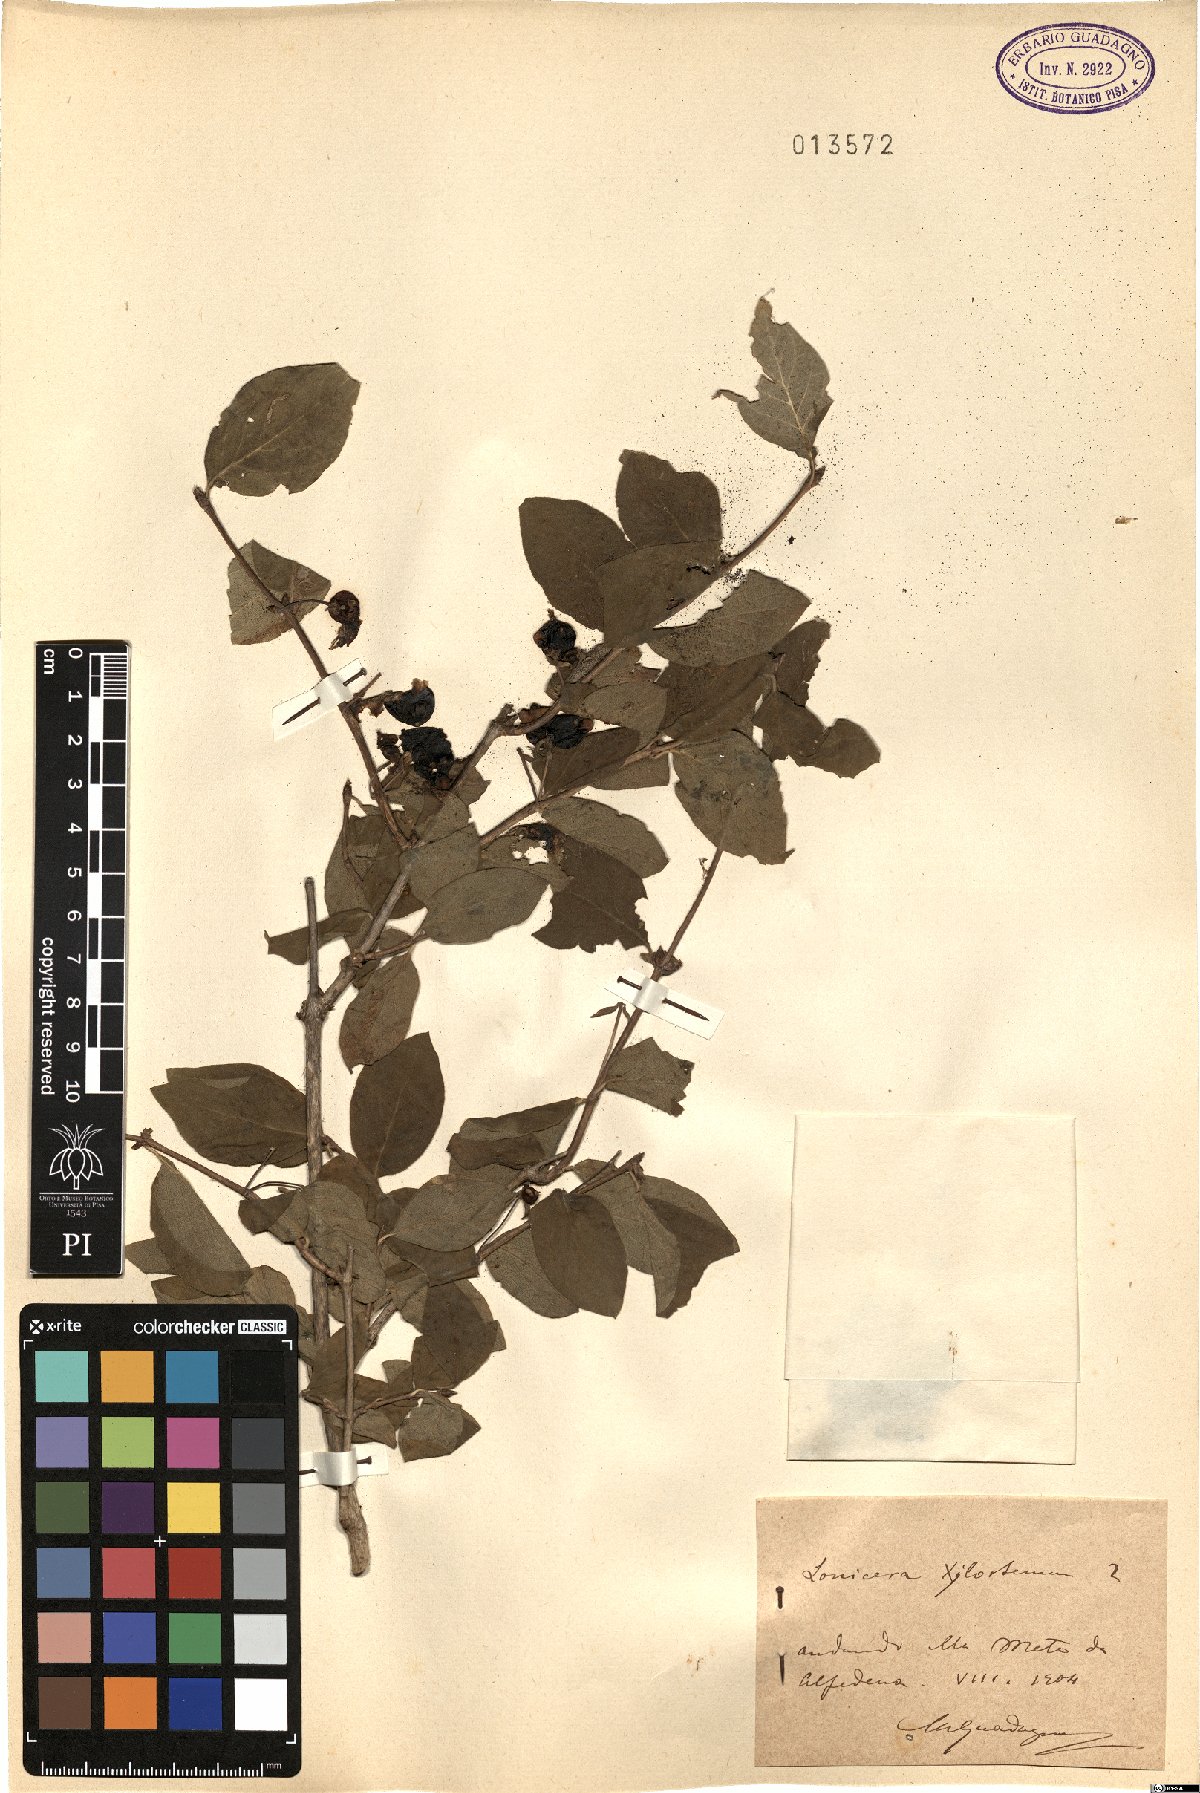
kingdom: Plantae
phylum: Tracheophyta
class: Magnoliopsida
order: Dipsacales
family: Caprifoliaceae
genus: Lonicera
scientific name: Lonicera xylosteum
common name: Fly honeysuckle
